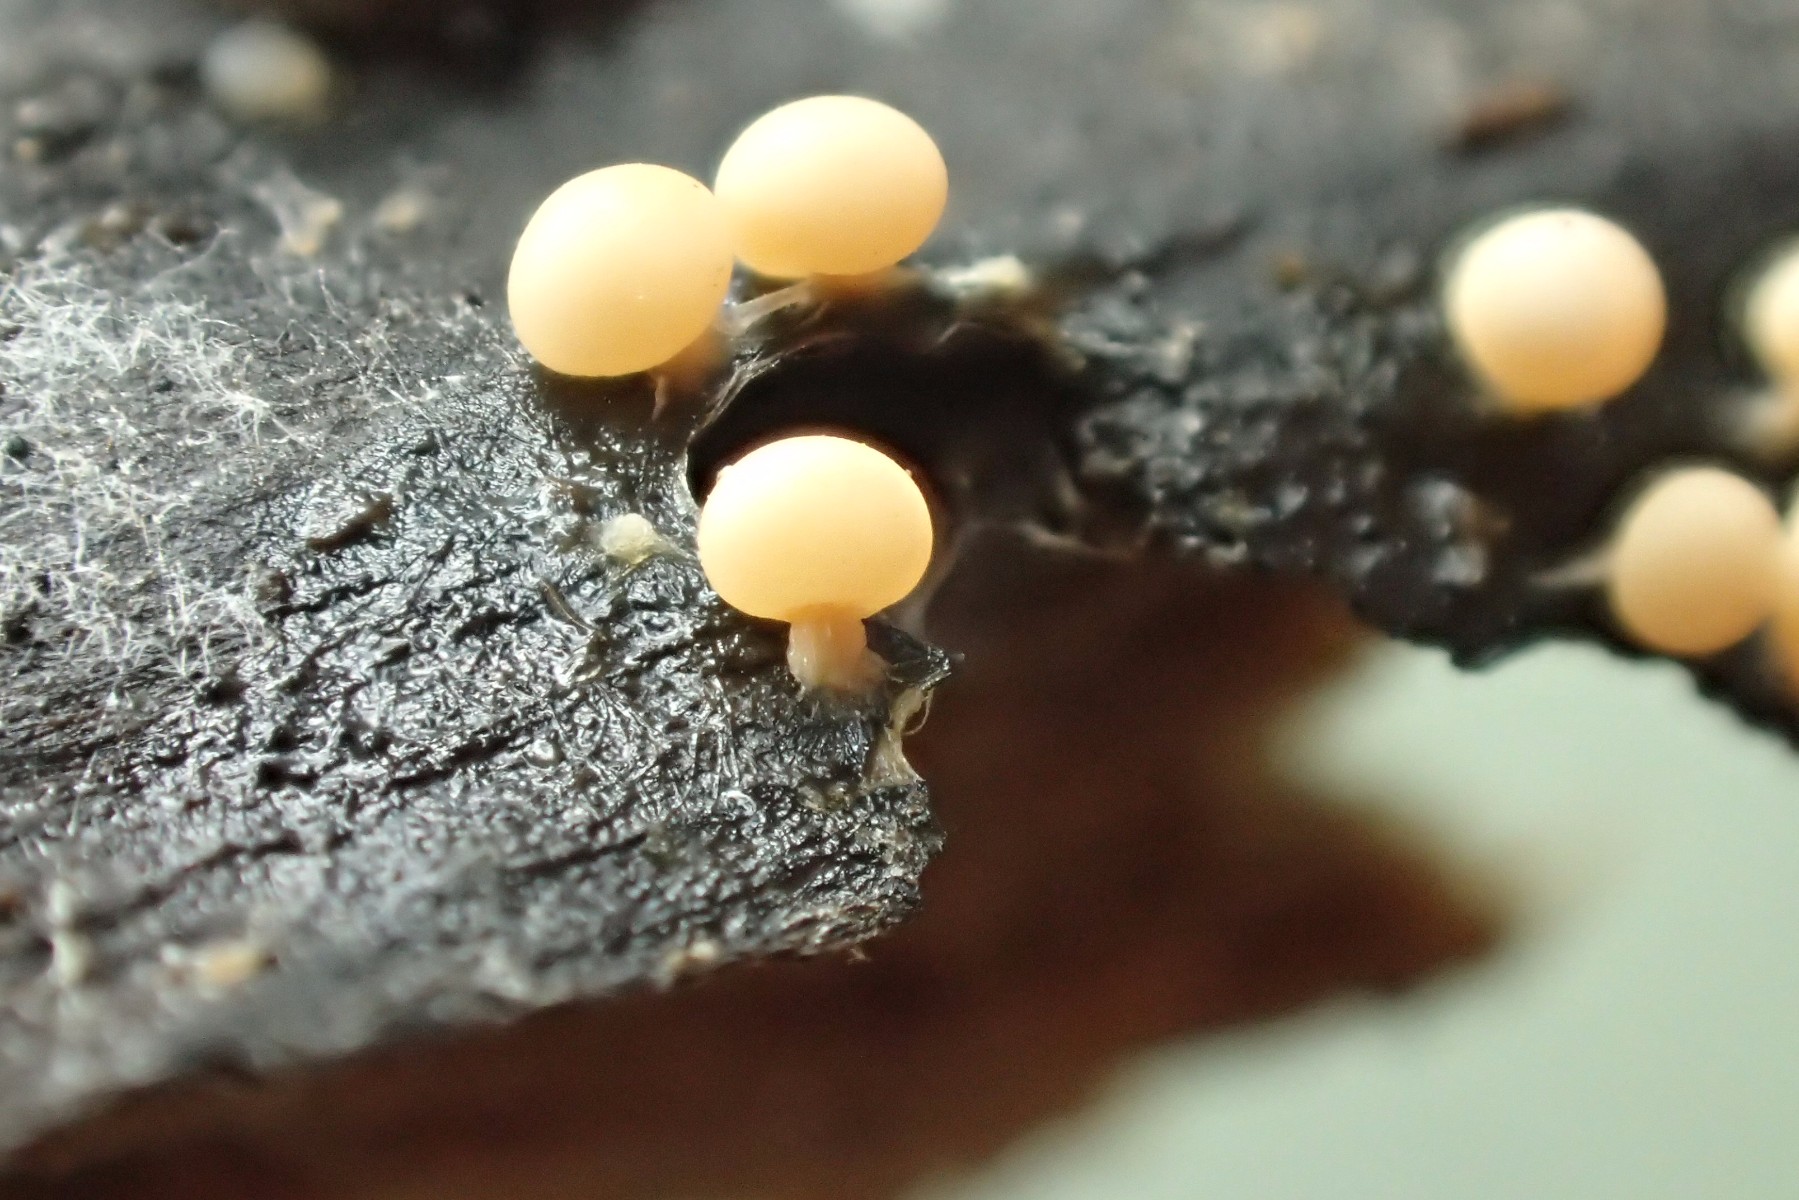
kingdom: Protozoa
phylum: Mycetozoa
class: Myxomycetes
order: Physarales
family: Didymiaceae
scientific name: Didymiaceae
